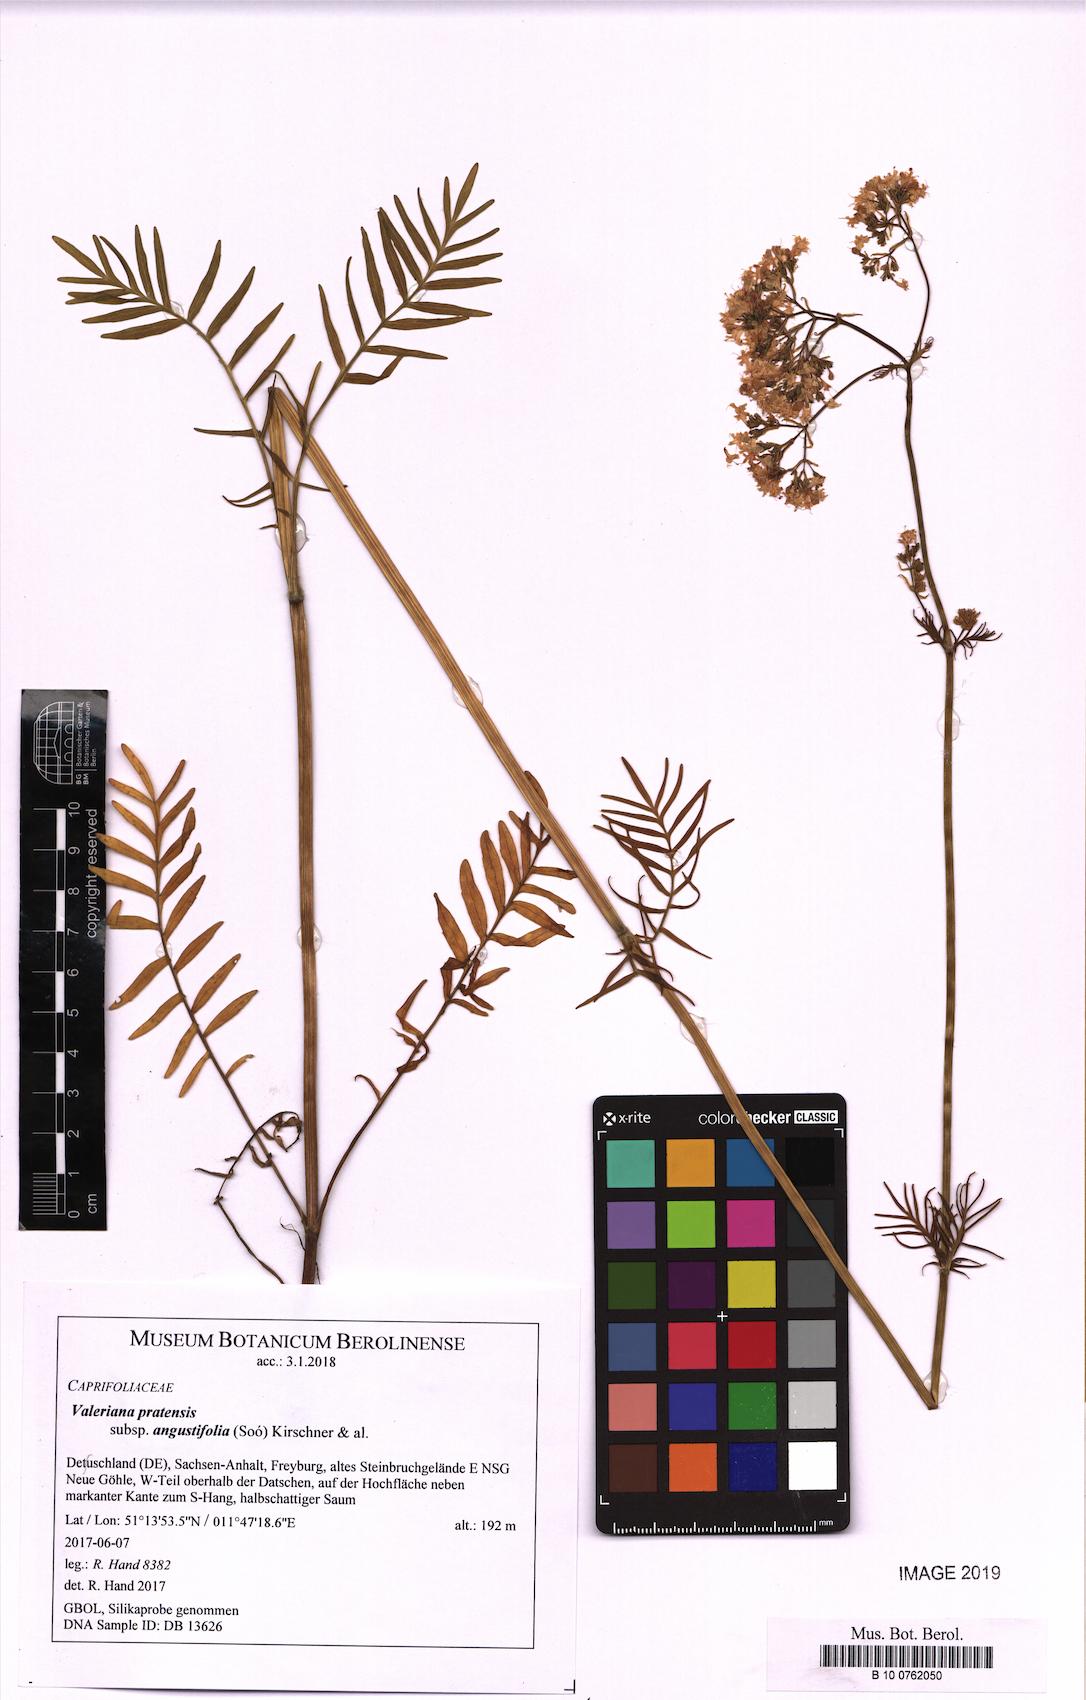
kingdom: Plantae
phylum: Tracheophyta
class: Magnoliopsida
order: Dipsacales
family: Caprifoliaceae
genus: Valeriana
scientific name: Valeriana pratensis
